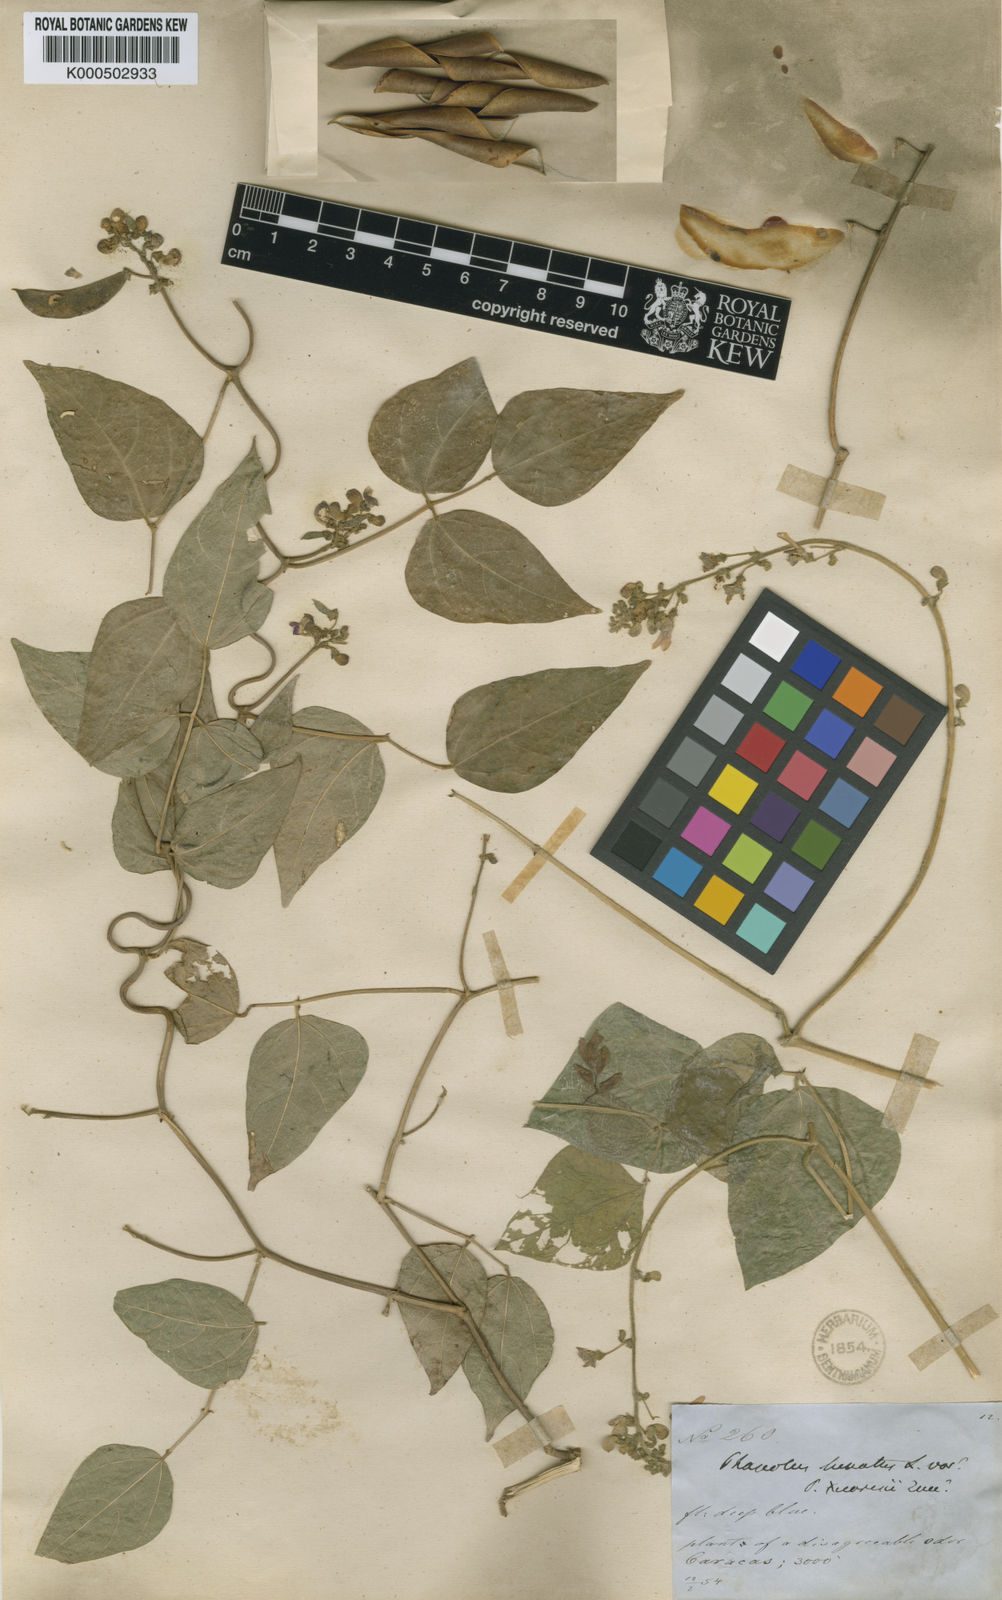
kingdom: Plantae
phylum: Tracheophyta
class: Magnoliopsida
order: Fabales
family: Fabaceae
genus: Phaseolus
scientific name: Phaseolus lunatus
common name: Sieva bean
